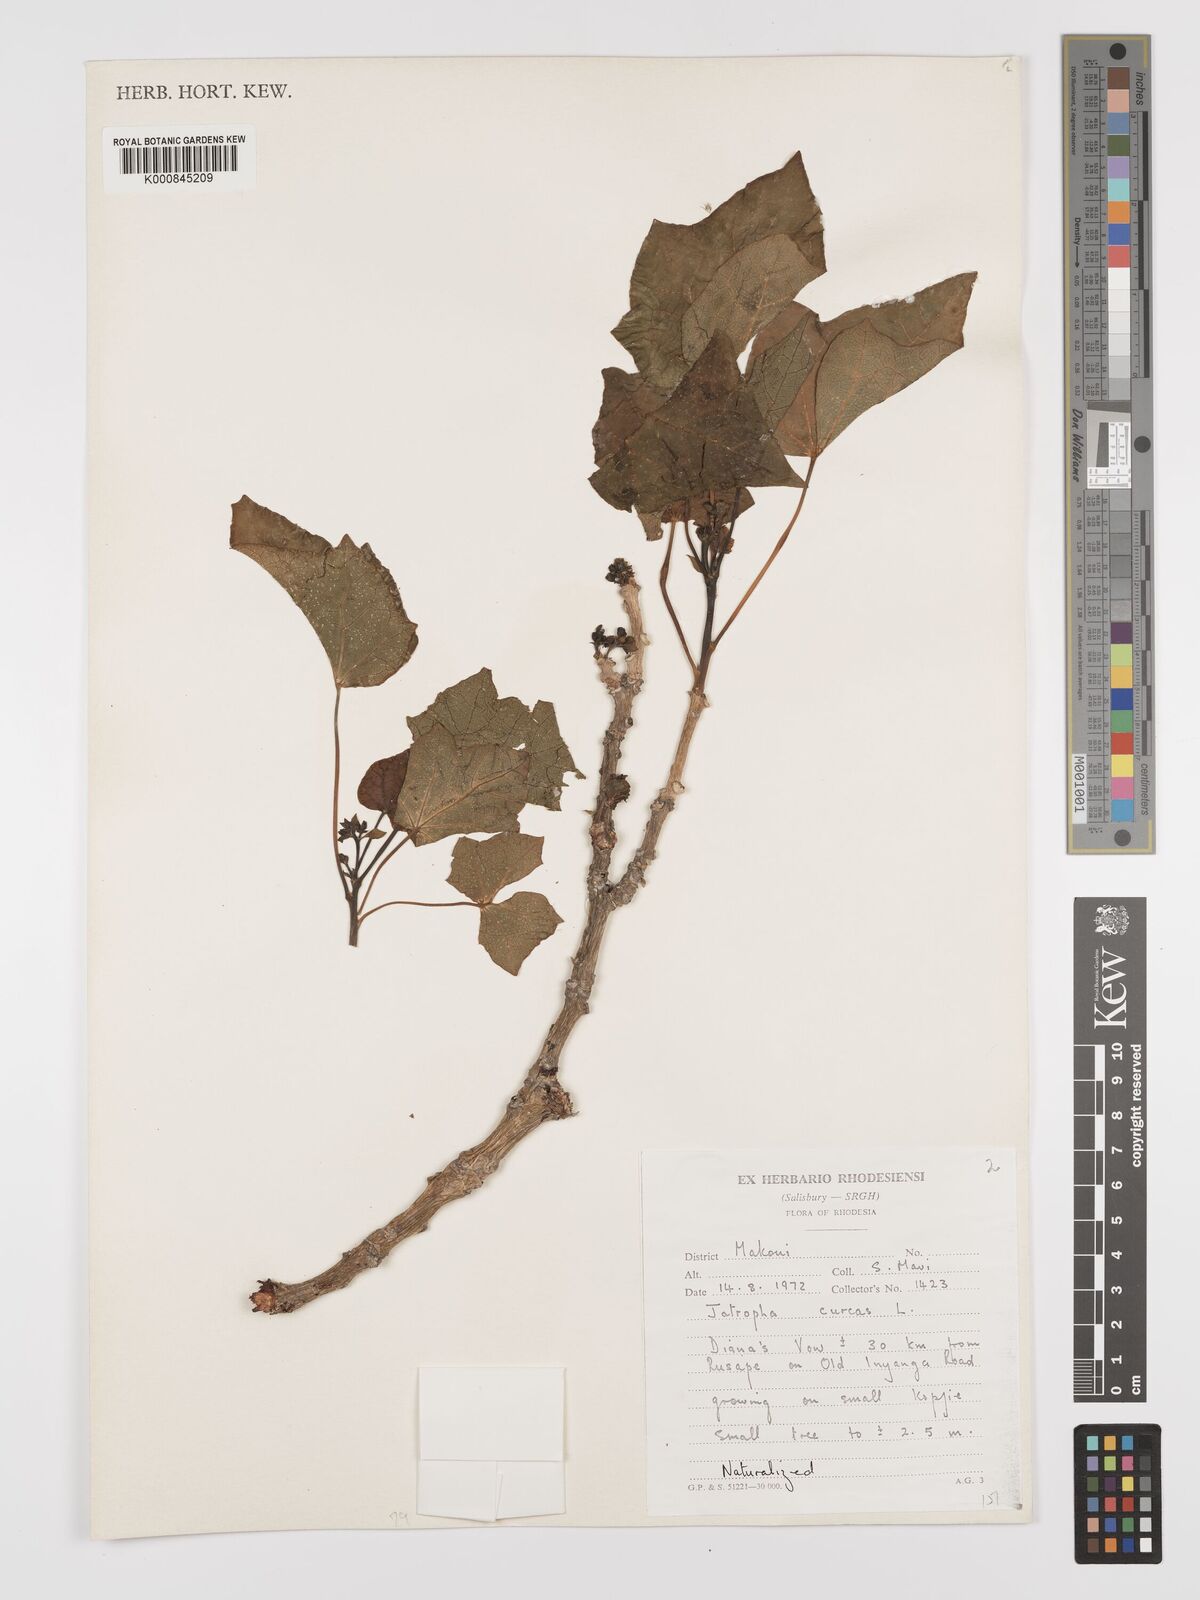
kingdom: Plantae
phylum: Tracheophyta
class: Magnoliopsida
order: Malpighiales
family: Euphorbiaceae
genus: Jatropha
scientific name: Jatropha curcas
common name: Barbados nut
